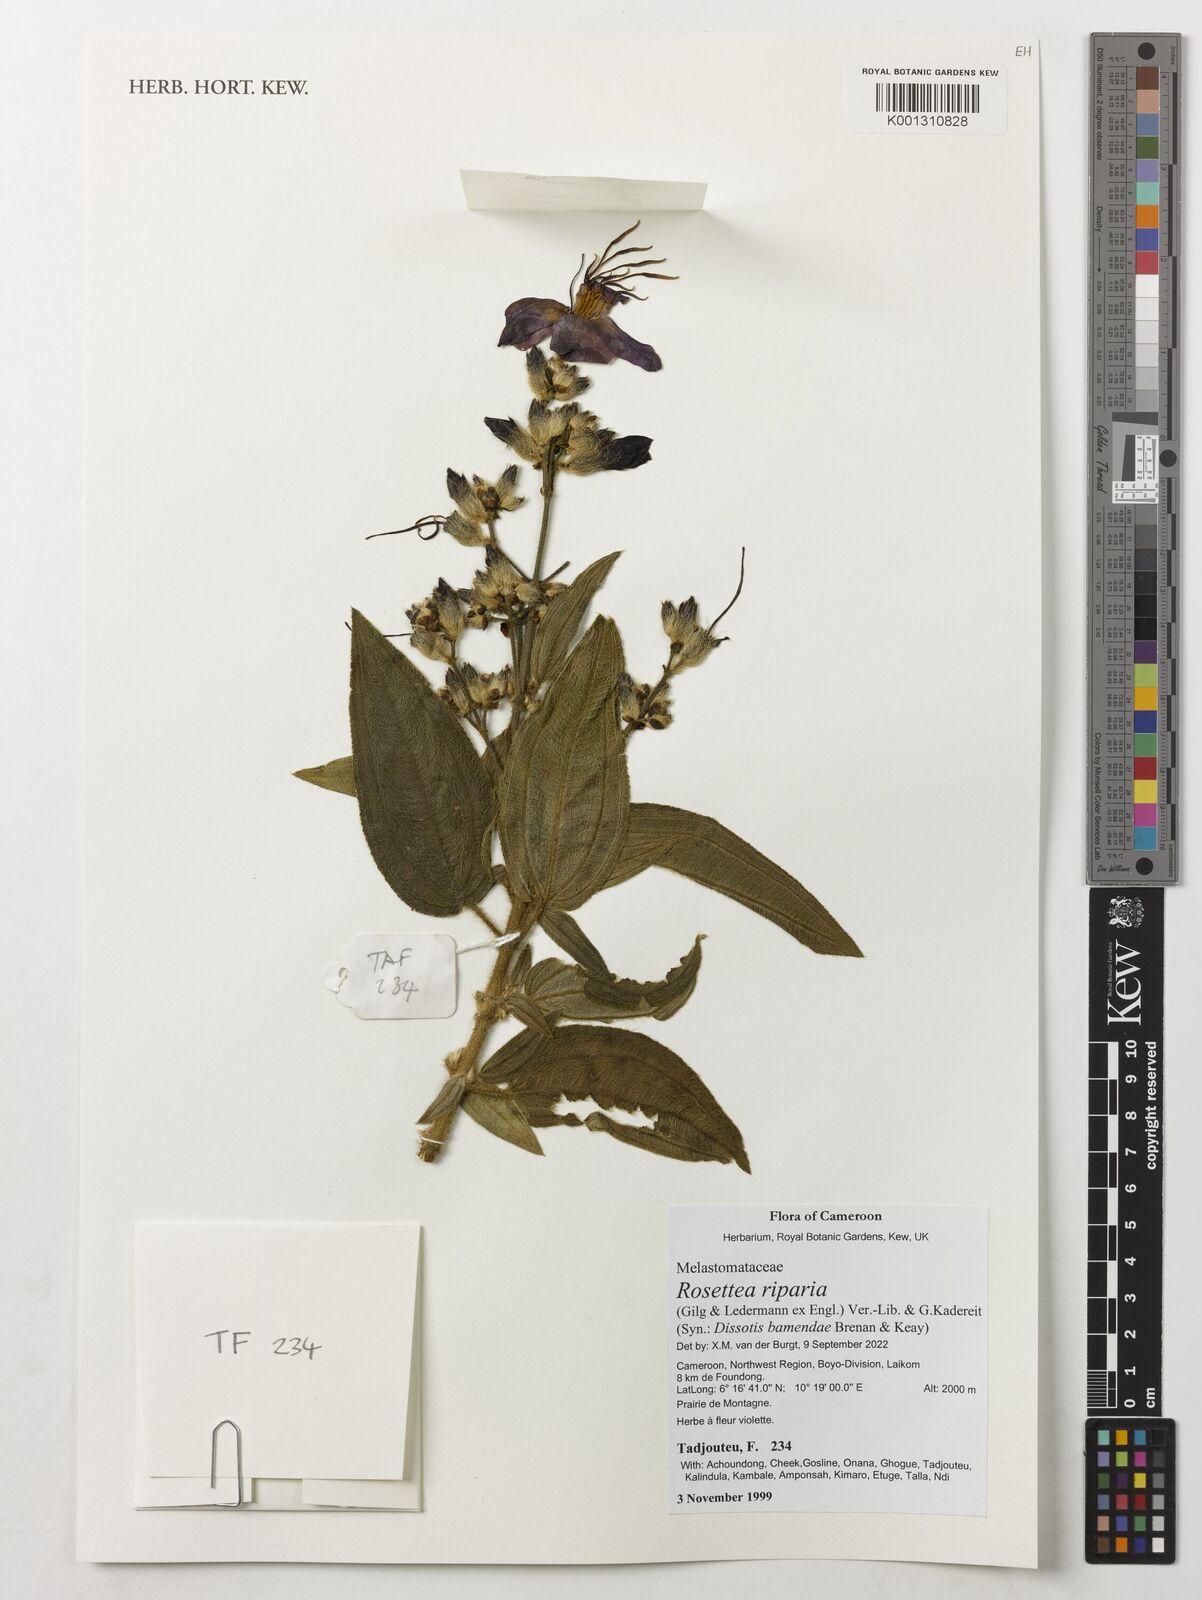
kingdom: Plantae
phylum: Tracheophyta
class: Magnoliopsida
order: Myrtales
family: Melastomataceae
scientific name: Melastomataceae
